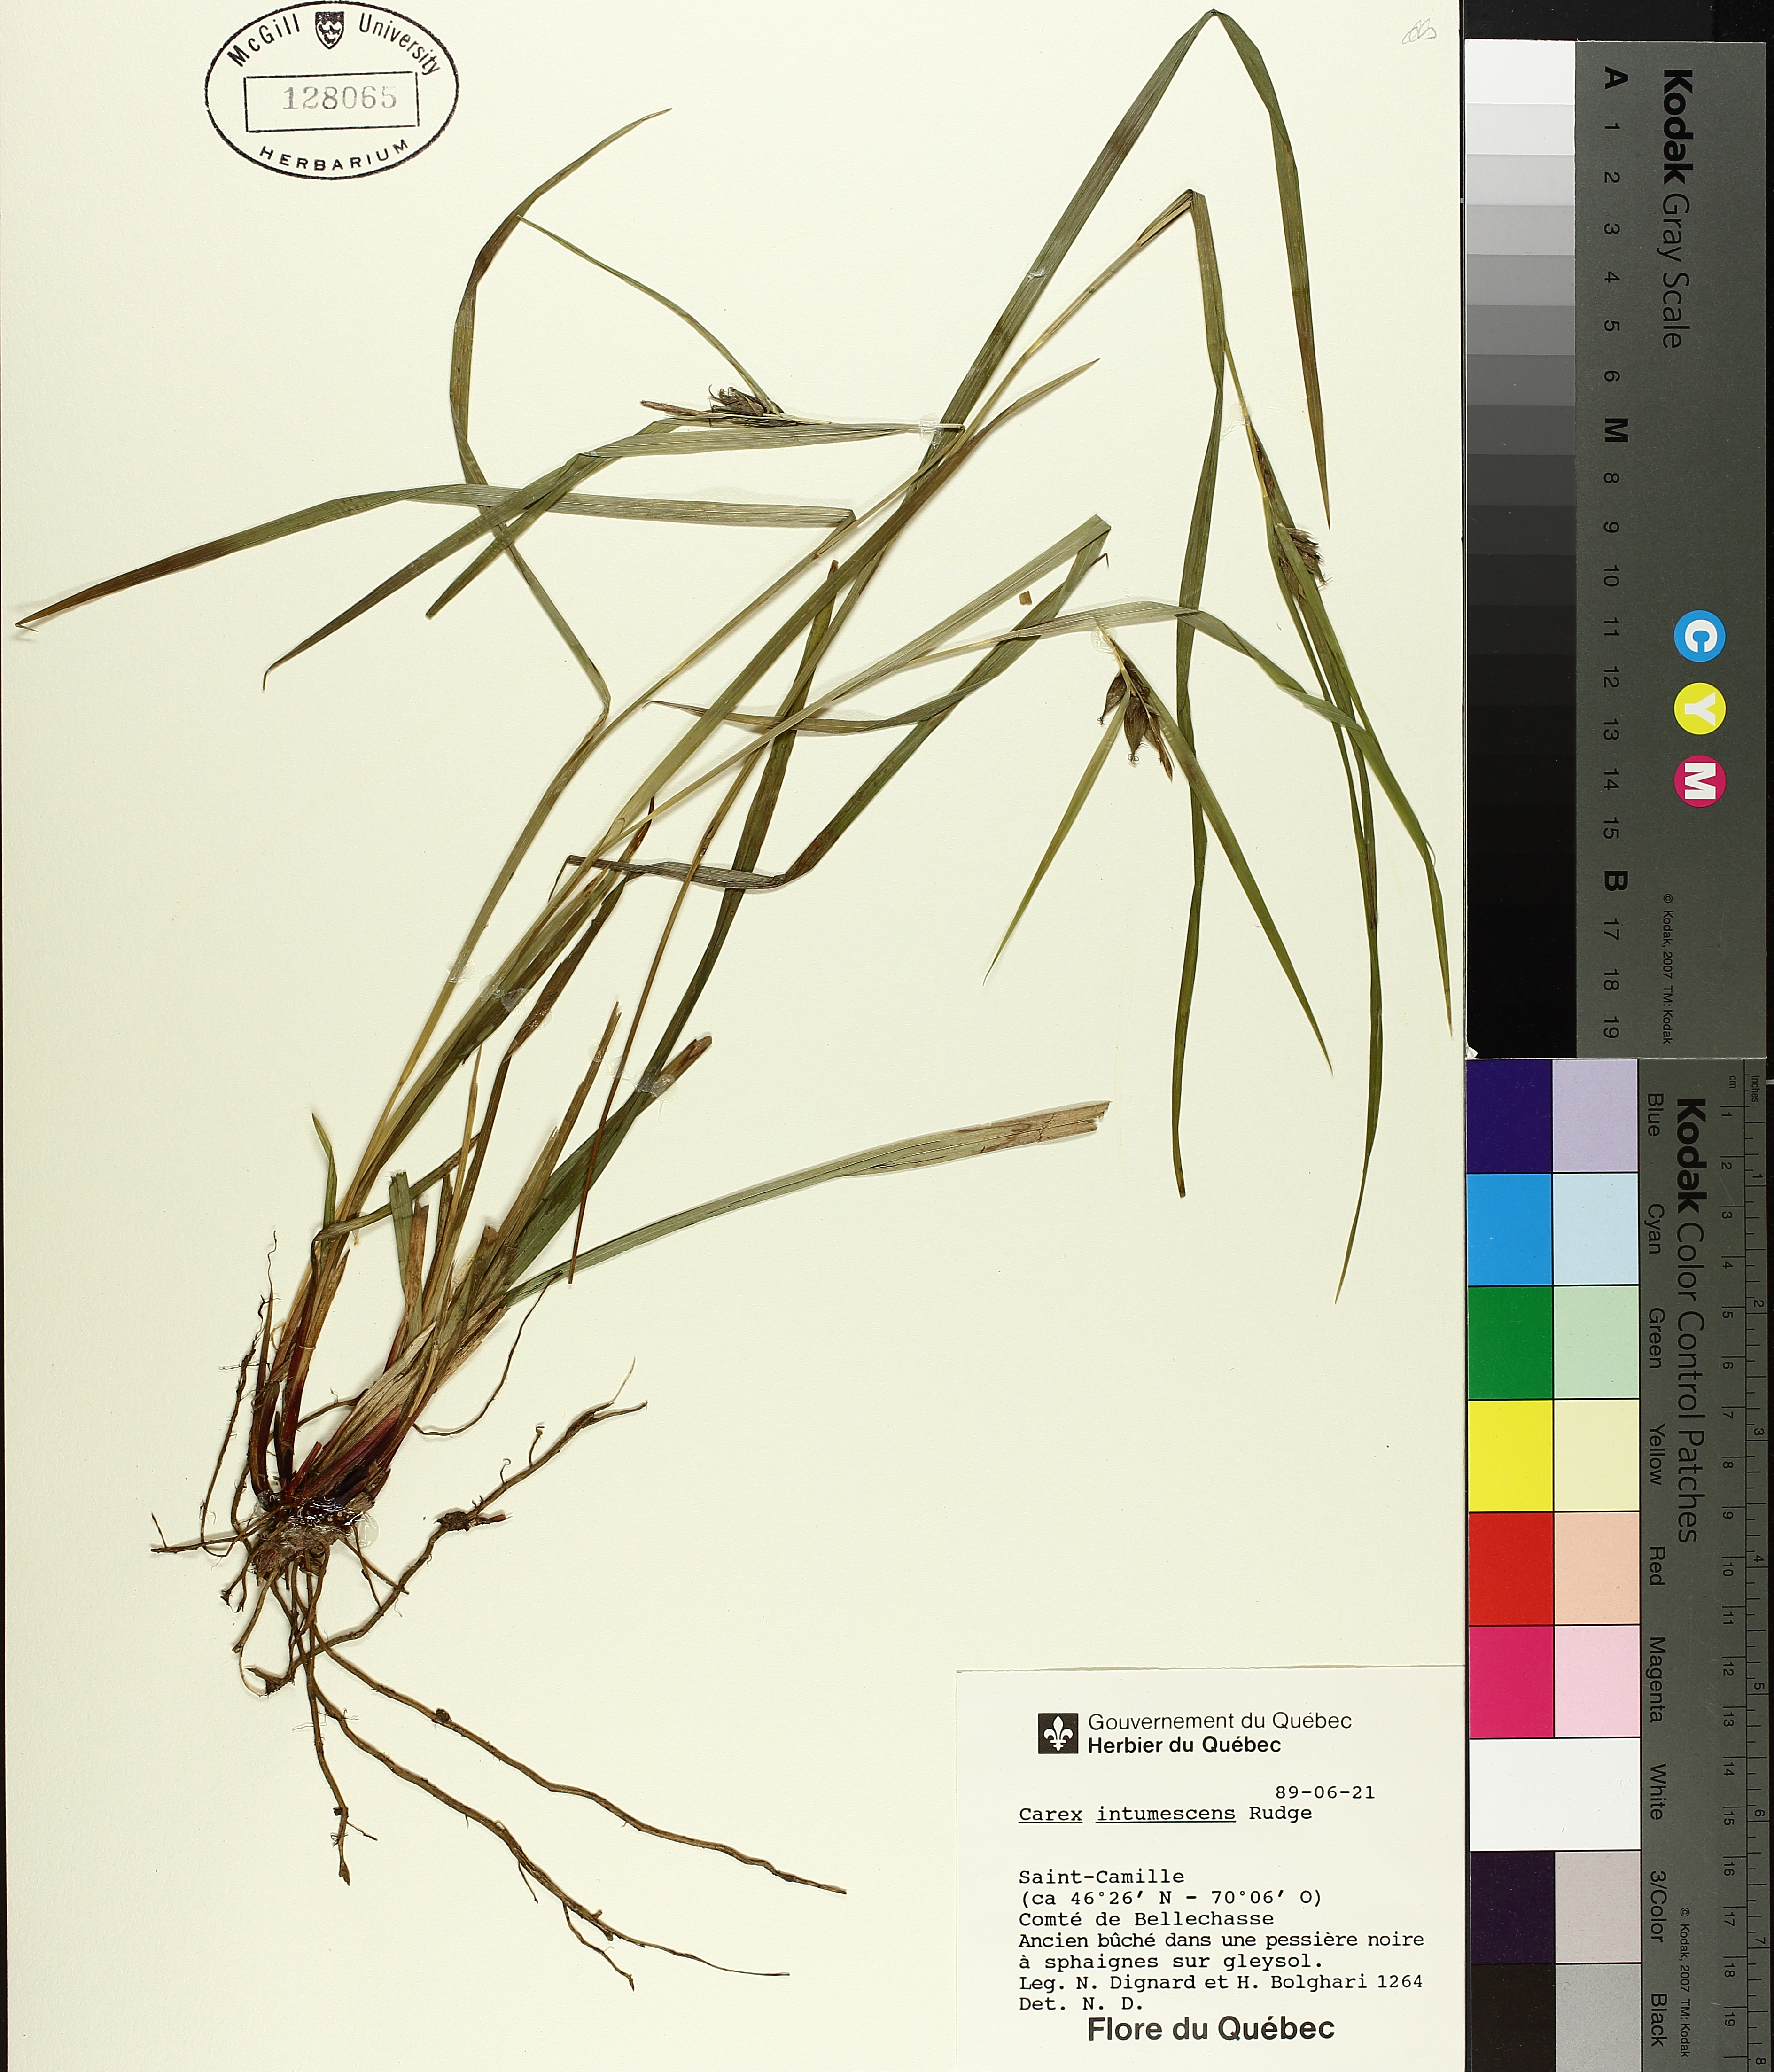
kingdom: Plantae
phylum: Tracheophyta
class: Liliopsida
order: Poales
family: Cyperaceae
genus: Carex
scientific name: Carex intumescens
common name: Greater bladder sedge
